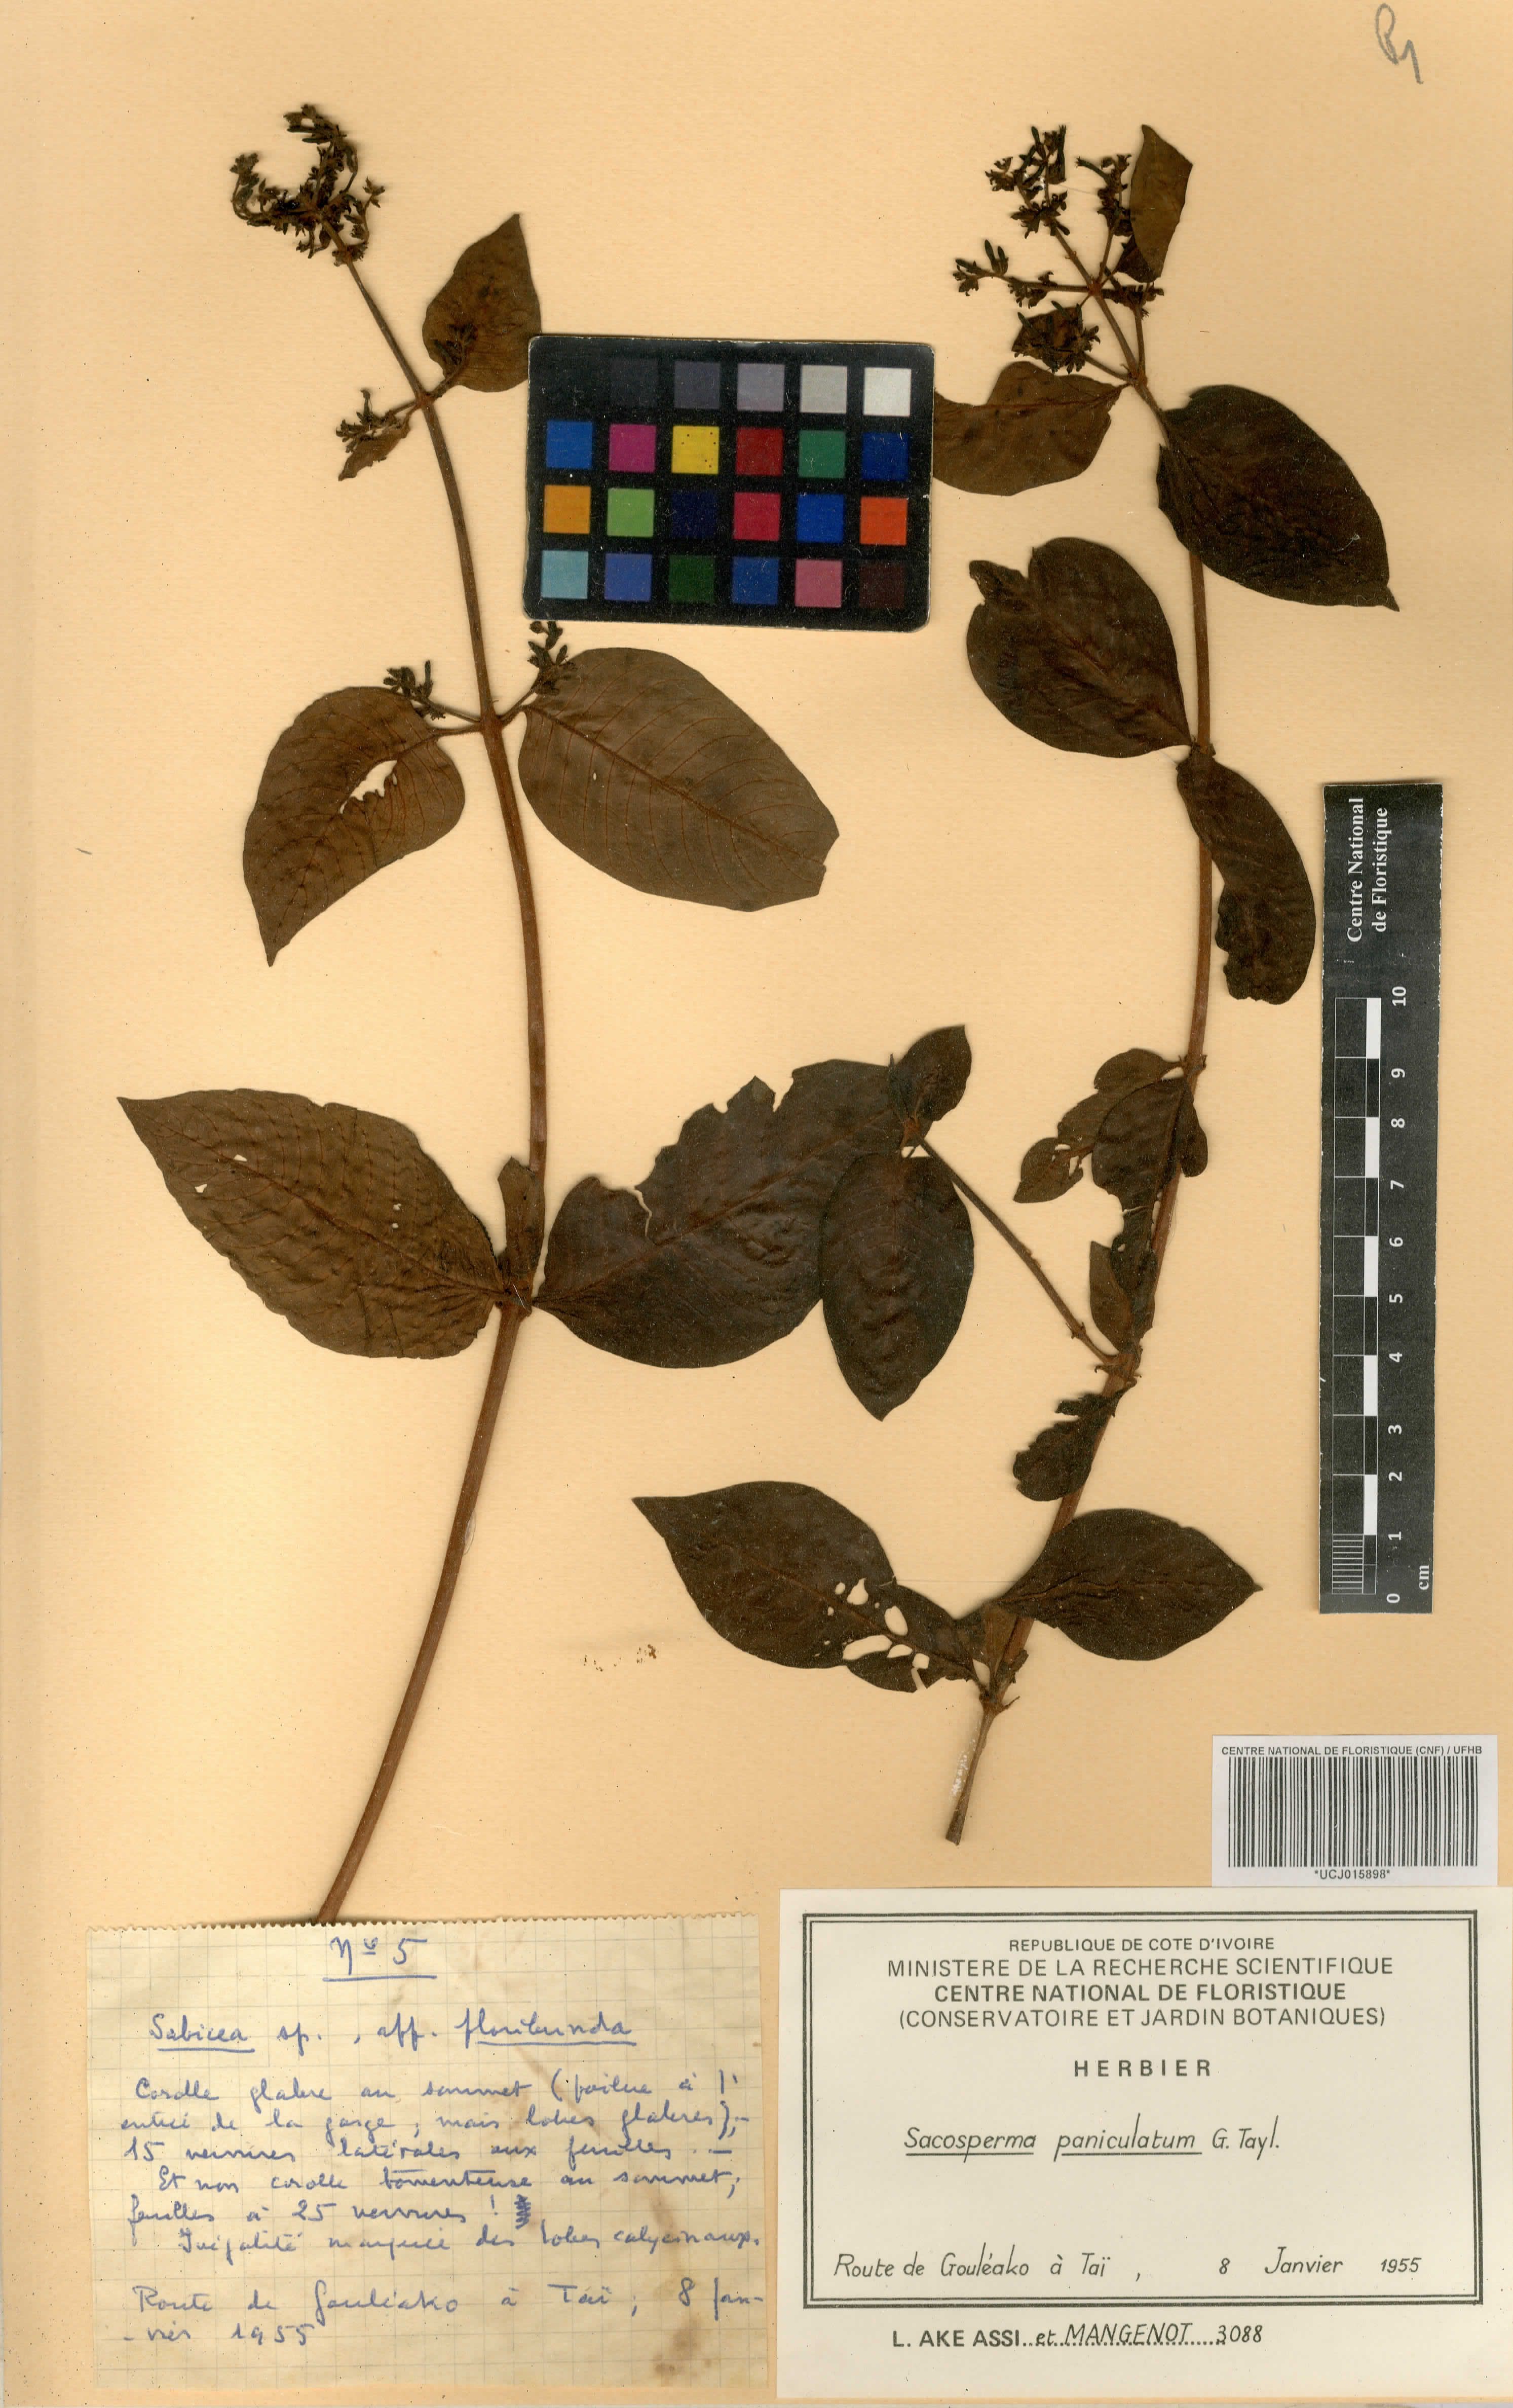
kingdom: Plantae
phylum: Tracheophyta
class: Magnoliopsida
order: Gentianales
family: Rubiaceae
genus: Sacosperma
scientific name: Sacosperma paniculatum
